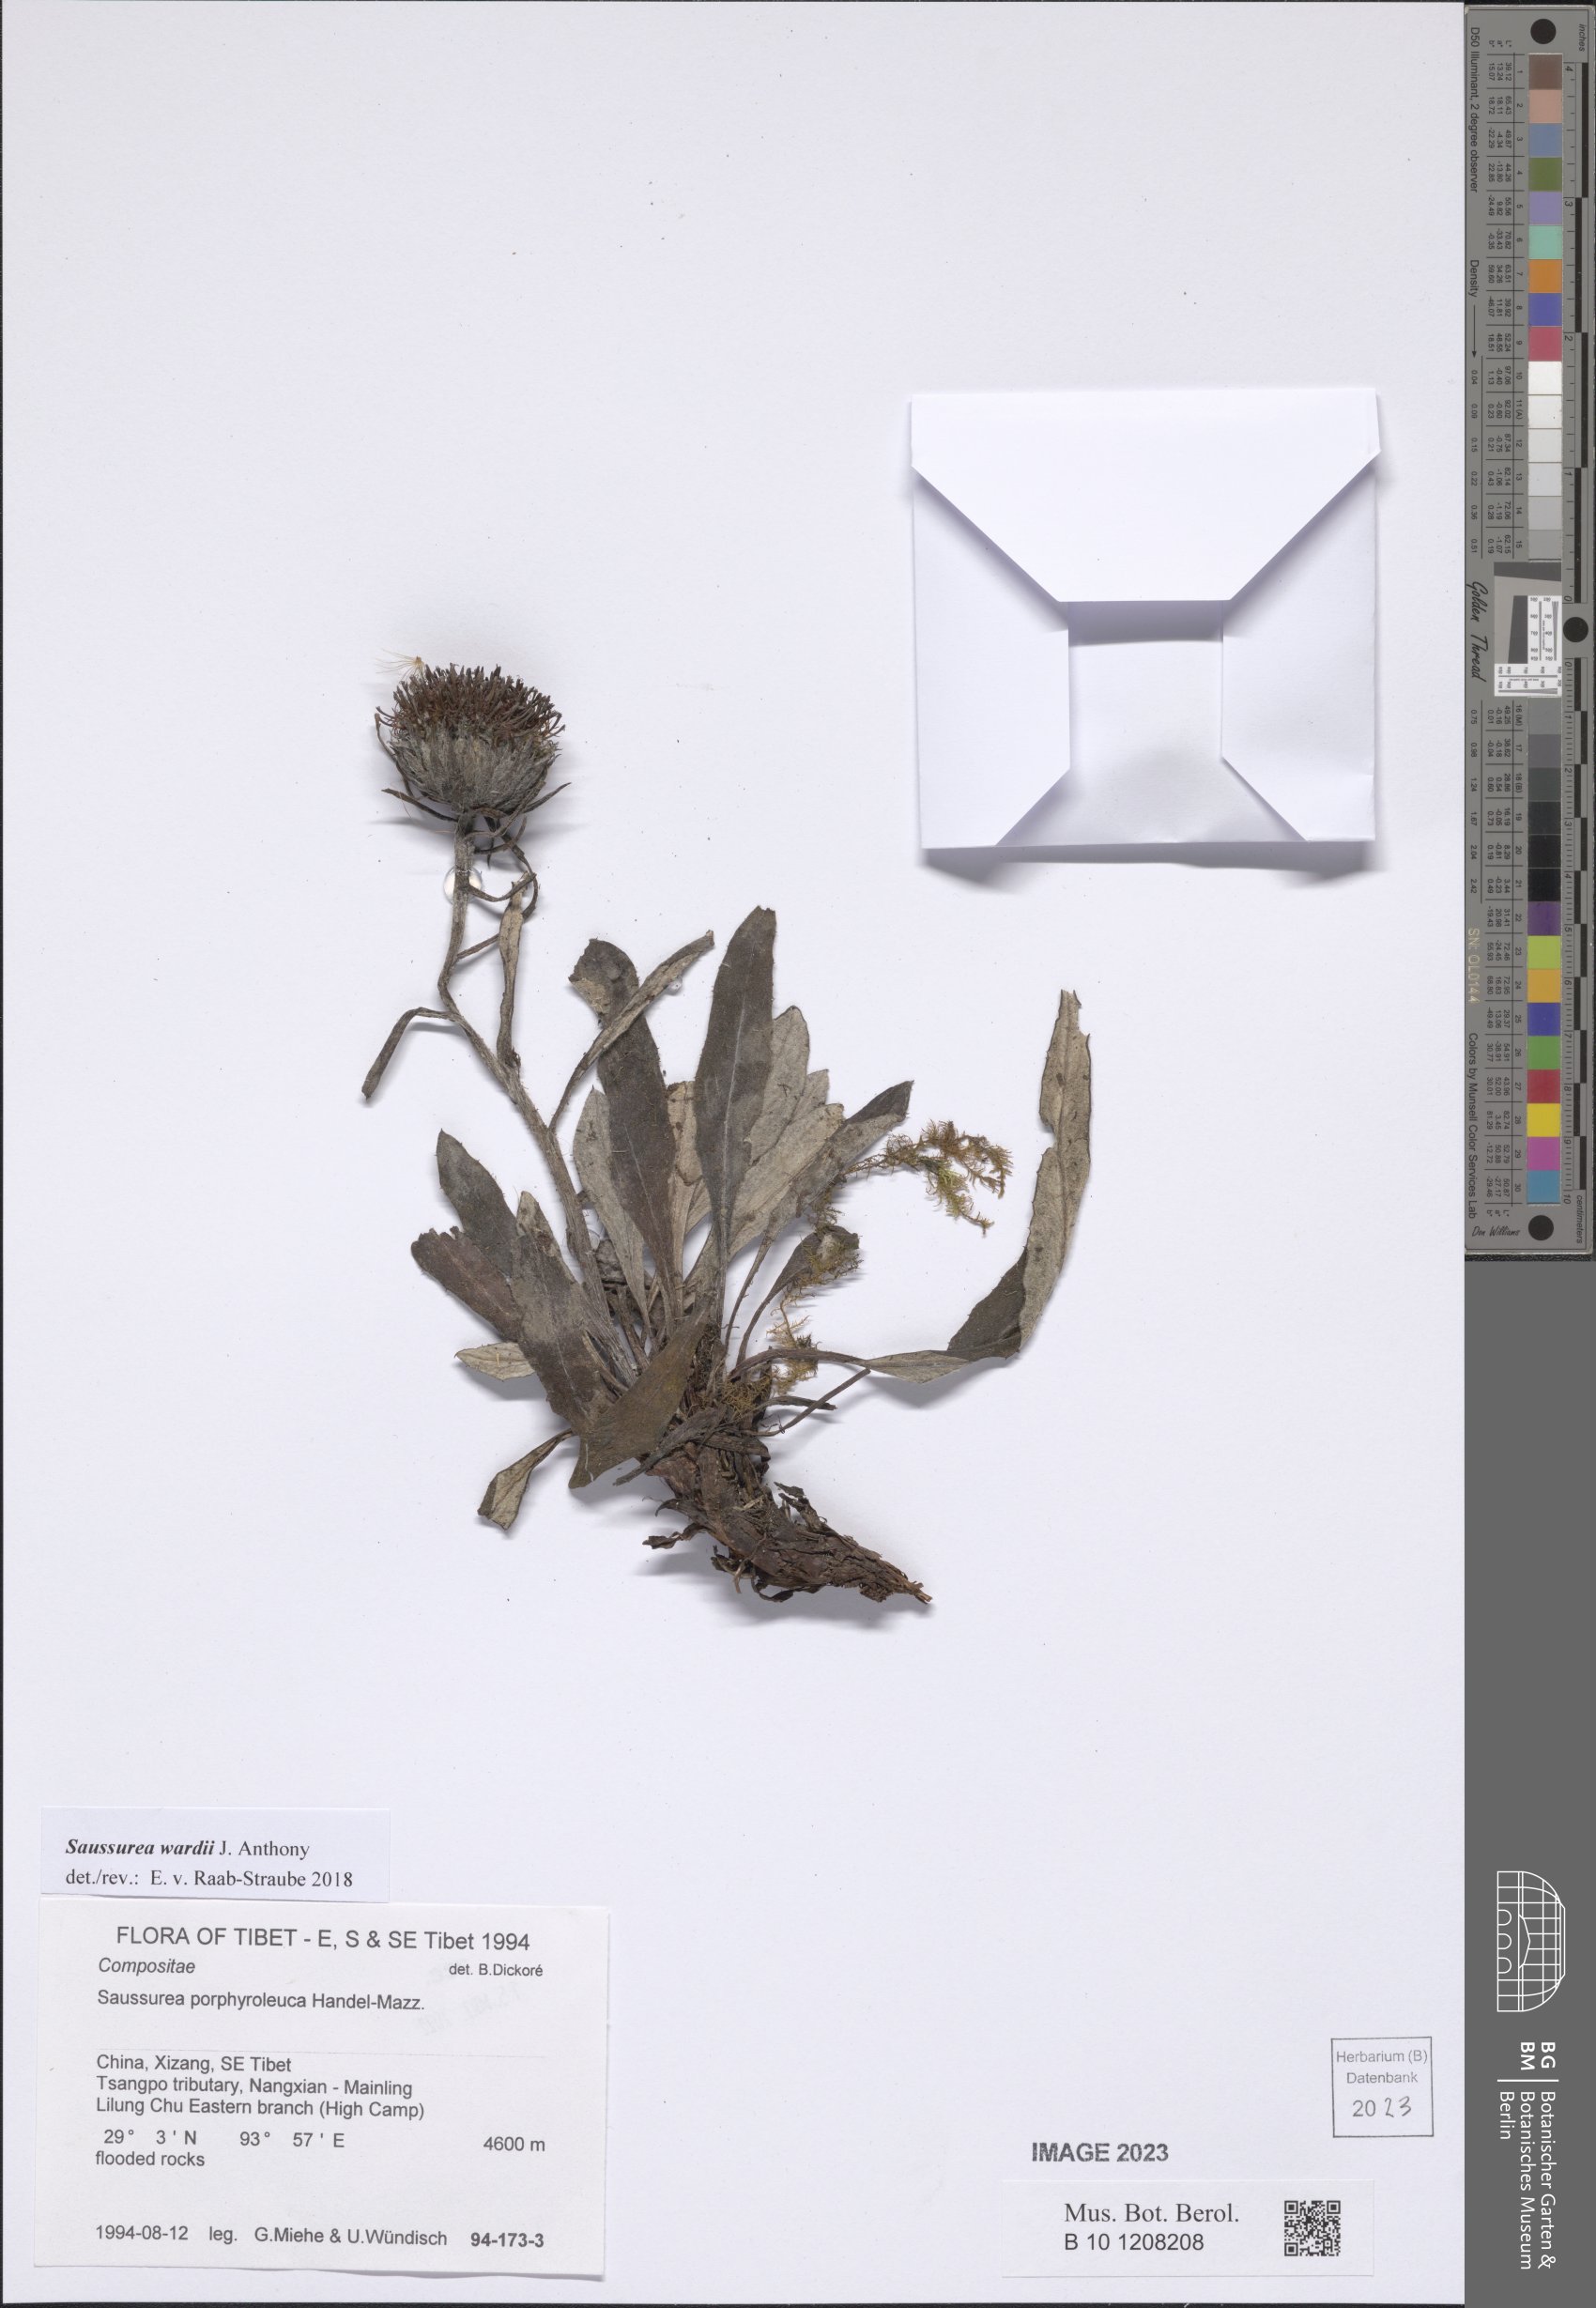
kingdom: Plantae
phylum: Tracheophyta
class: Magnoliopsida
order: Asterales
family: Asteraceae
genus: Saussurea
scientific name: Saussurea wardii
